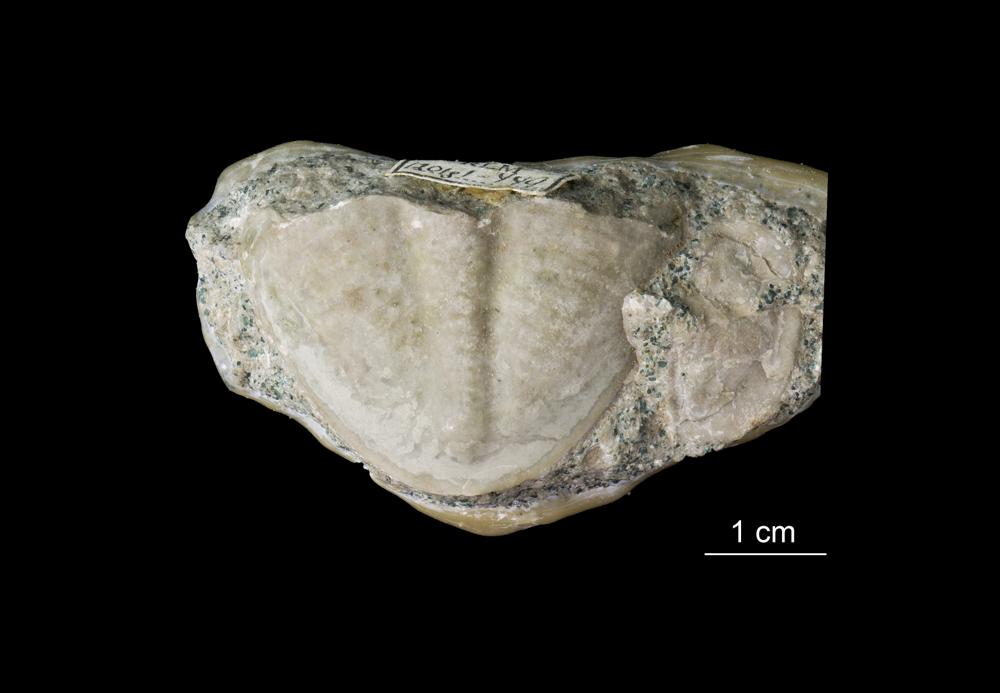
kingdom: Animalia
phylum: Arthropoda
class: Trilobita
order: Asaphida
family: Asaphidae
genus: Megistaspis
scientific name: Megistaspis planilimbata
